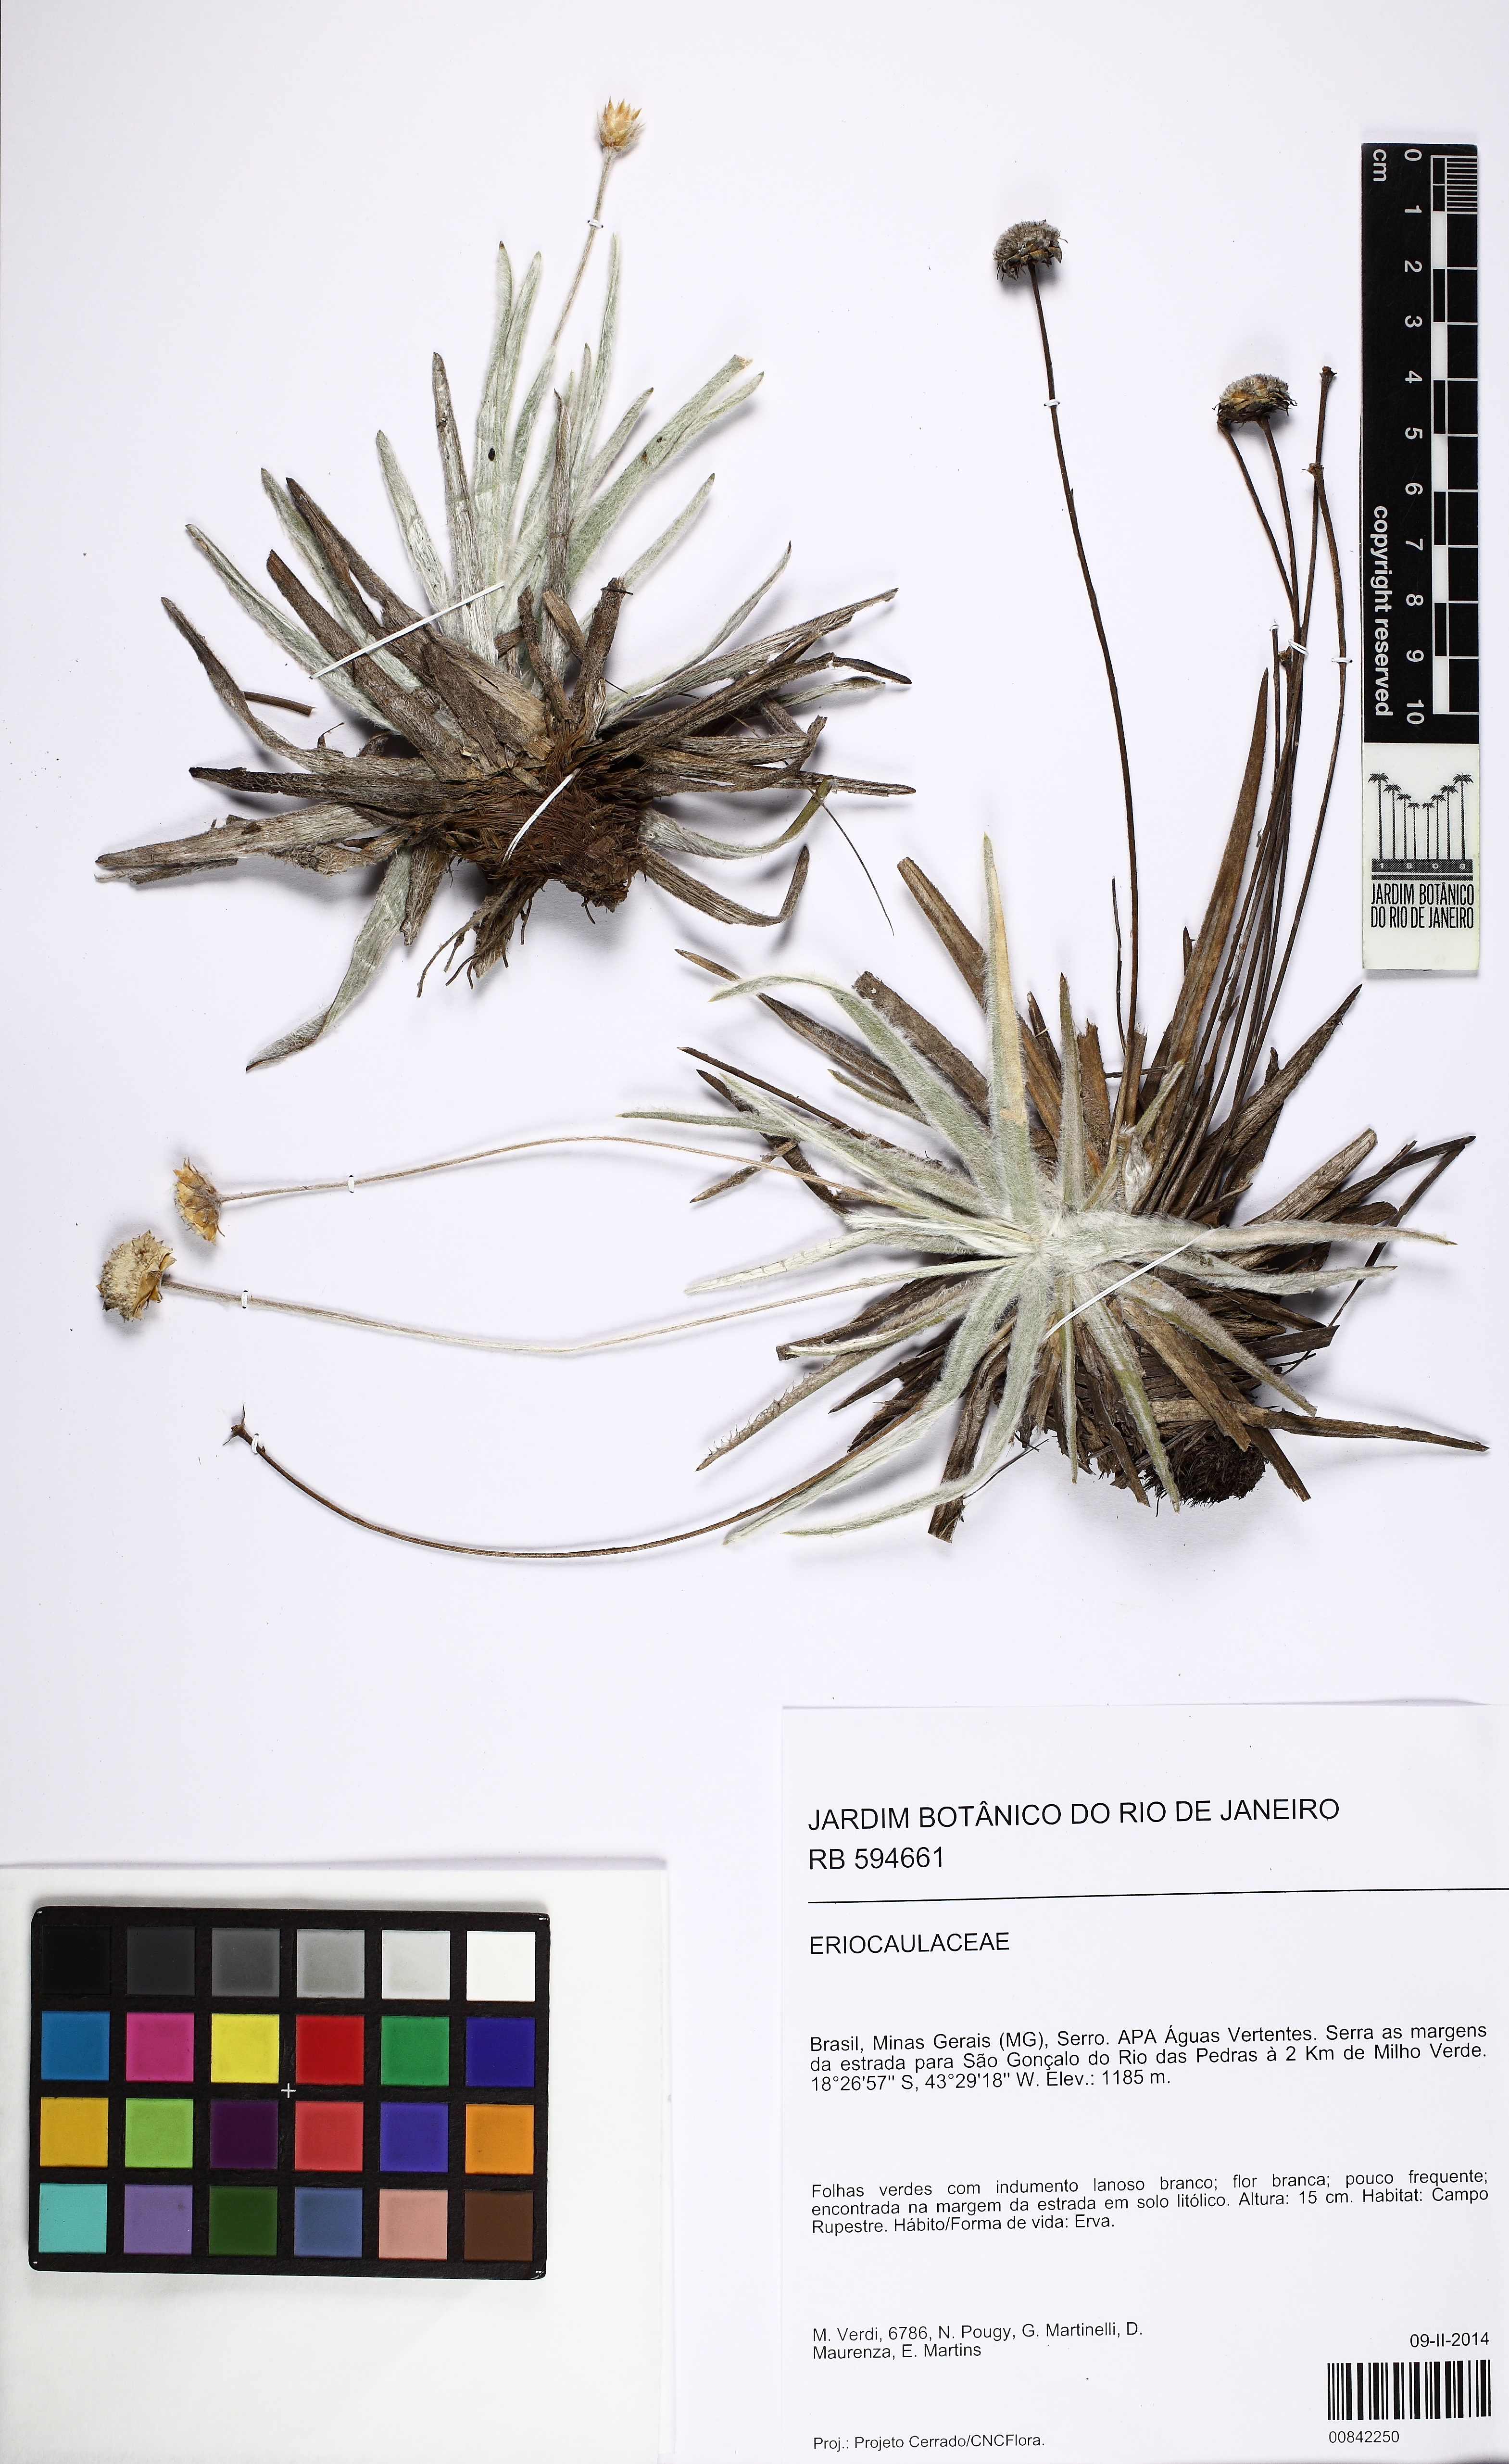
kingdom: Plantae
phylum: Tracheophyta
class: Liliopsida
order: Poales
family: Eriocaulaceae
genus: Paepalanthus
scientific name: Paepalanthus argenteus
